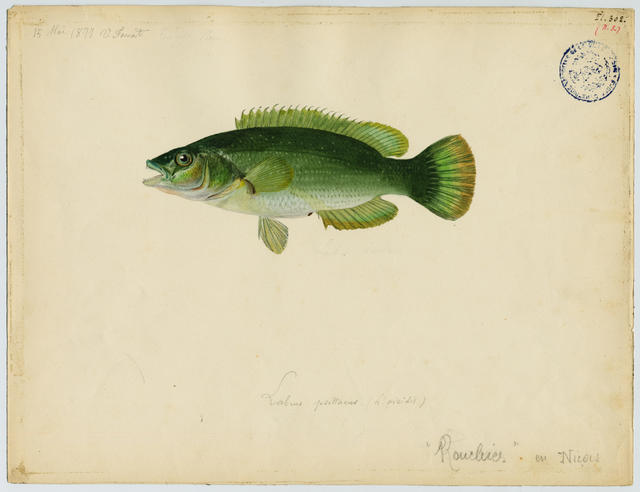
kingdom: Animalia
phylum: Chordata
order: Perciformes
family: Labridae
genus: Labrus
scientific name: Labrus viridis
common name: Green wrasse
